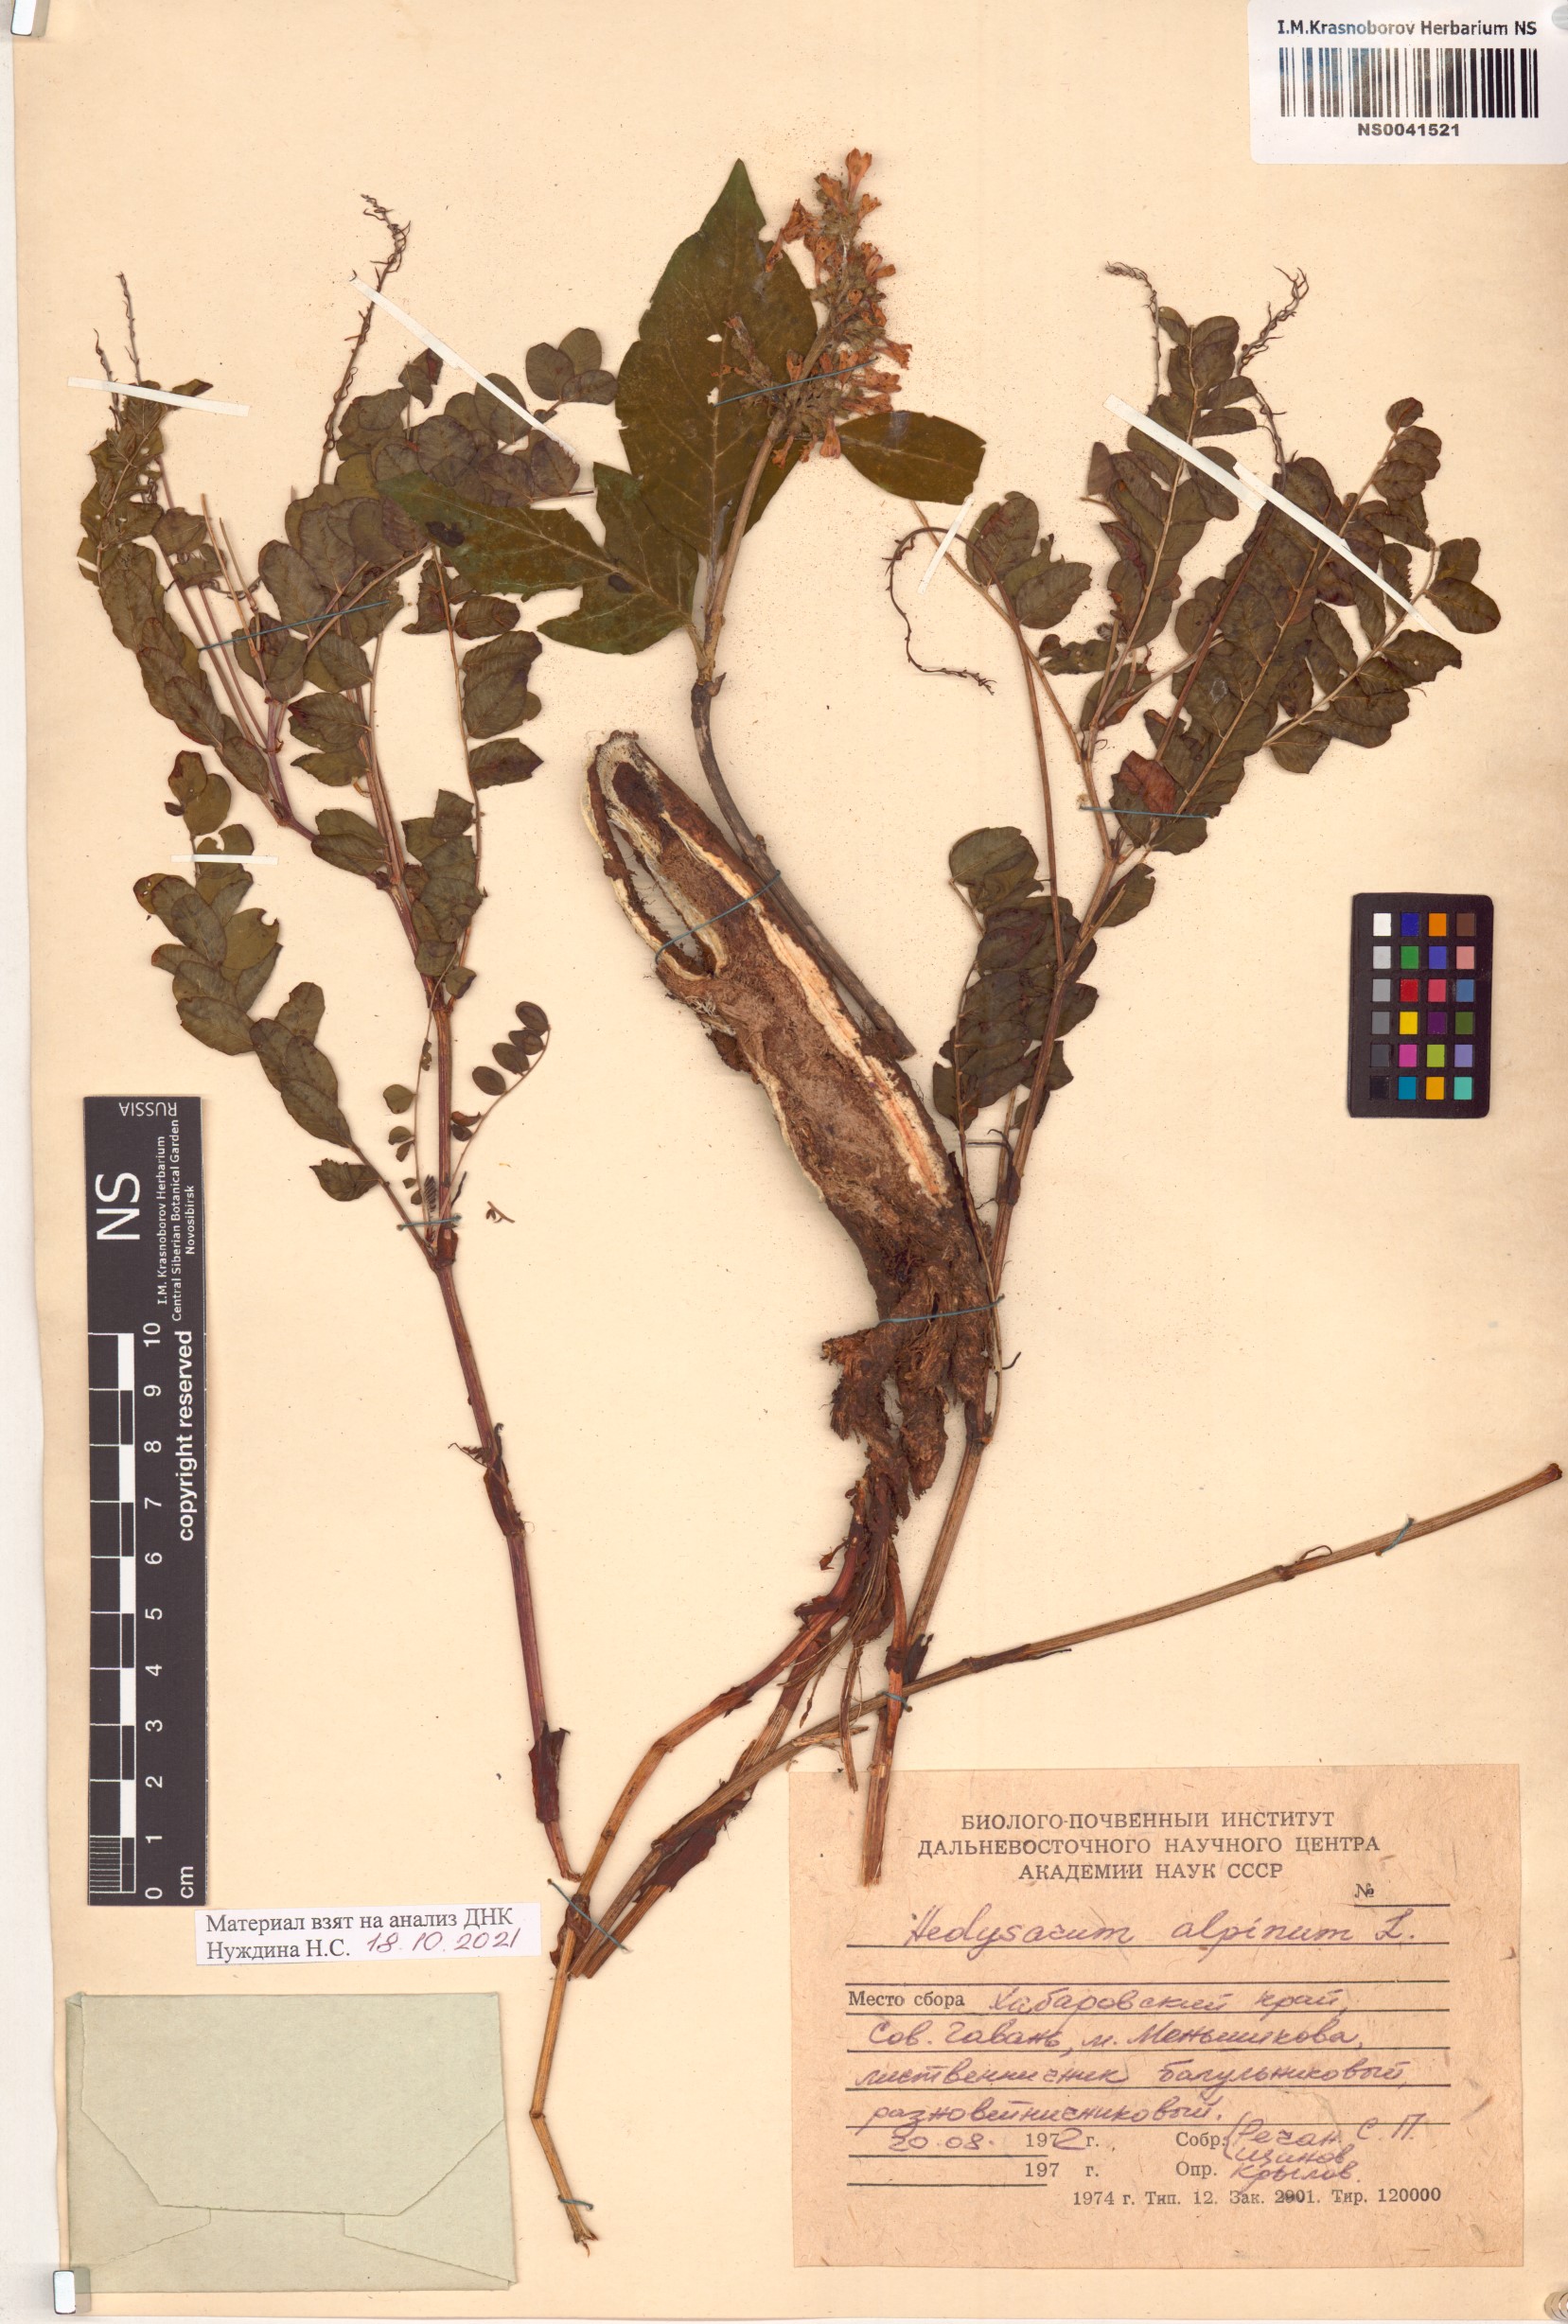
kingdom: Plantae
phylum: Tracheophyta
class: Magnoliopsida
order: Fabales
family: Fabaceae
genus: Hedysarum
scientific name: Hedysarum alpinum
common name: Alpine sweet-vetch
